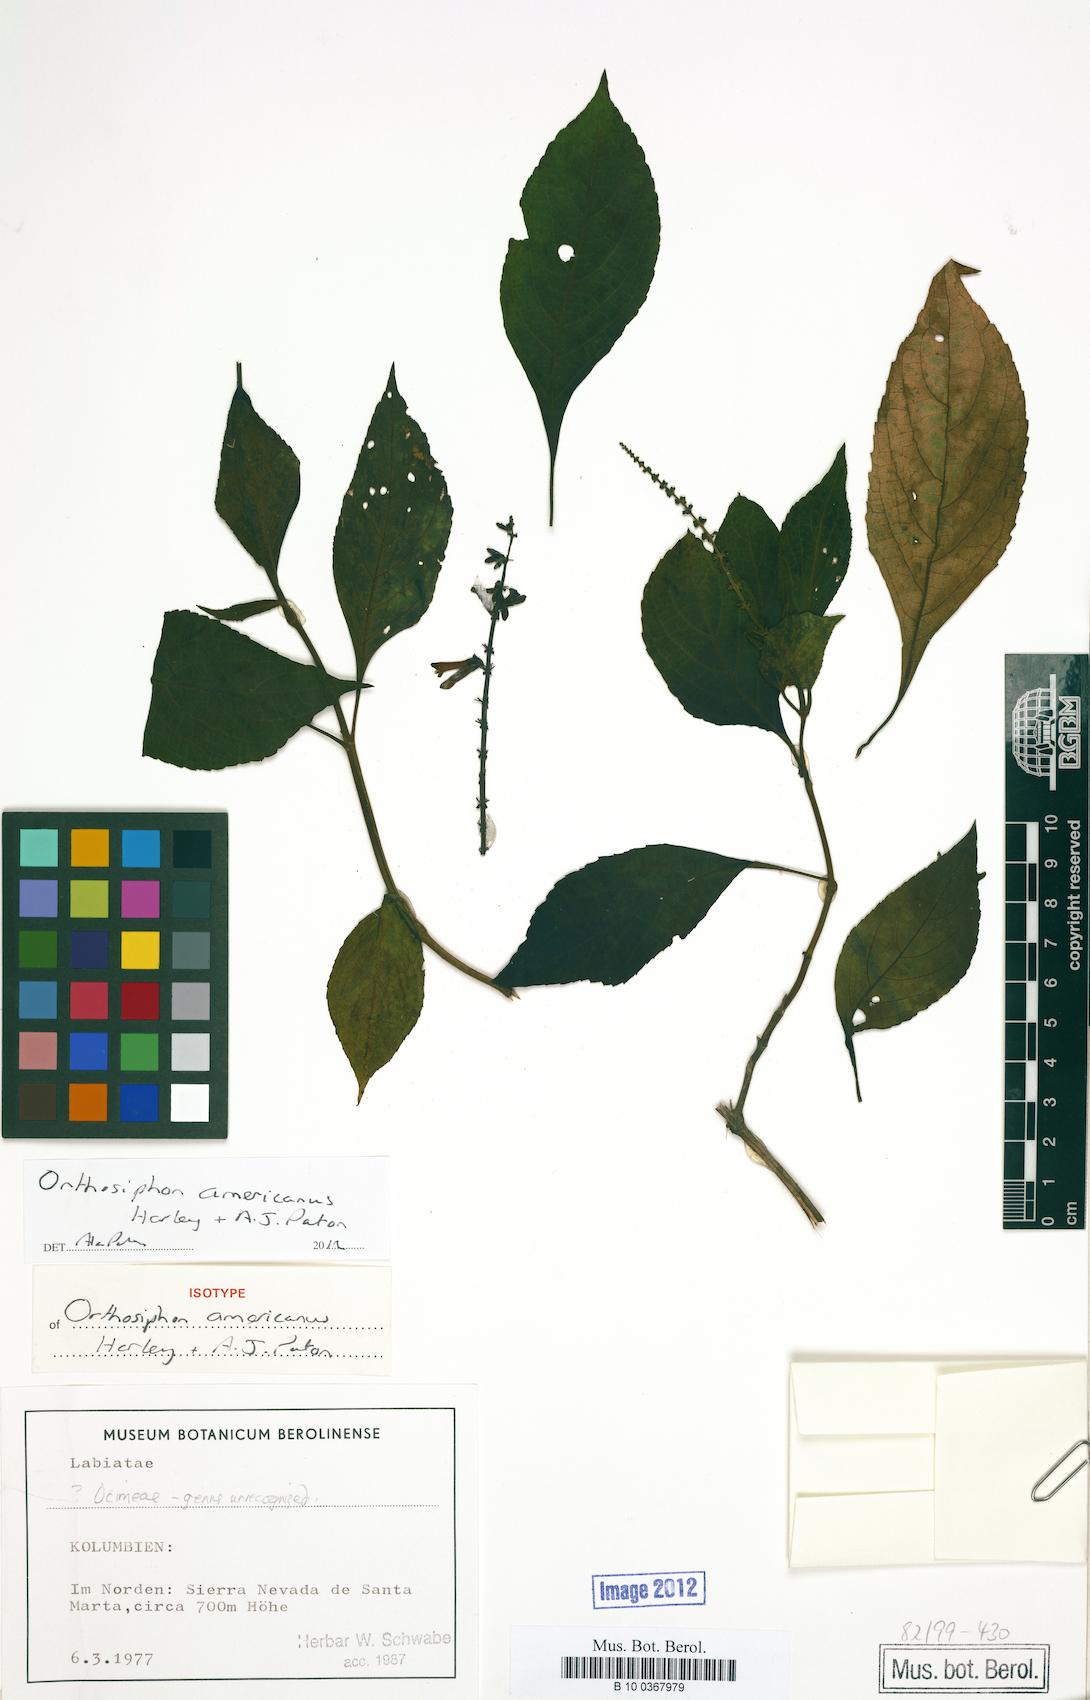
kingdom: Plantae
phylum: Tracheophyta
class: Magnoliopsida
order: Lamiales
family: Lamiaceae
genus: Orthosiphon
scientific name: Orthosiphon americanus
